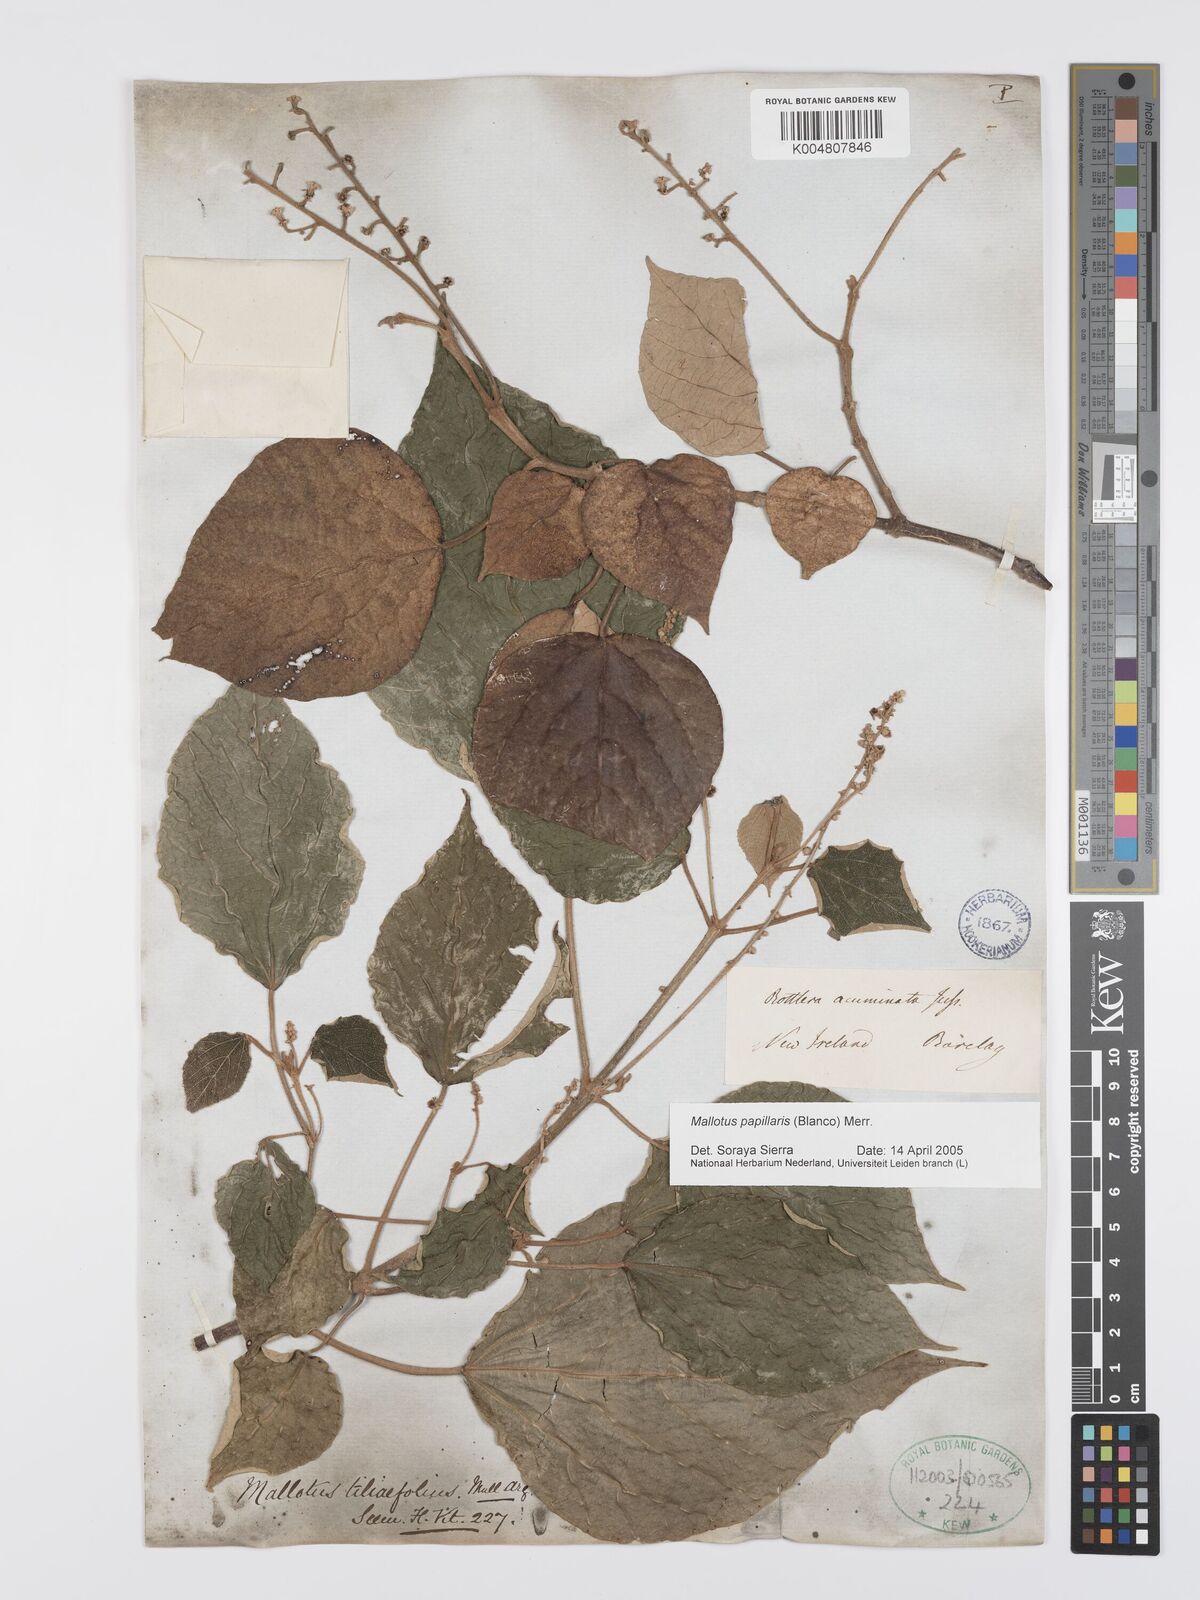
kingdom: Plantae
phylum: Tracheophyta
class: Magnoliopsida
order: Malpighiales
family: Euphorbiaceae
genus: Mallotus
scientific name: Mallotus tiliifolius
